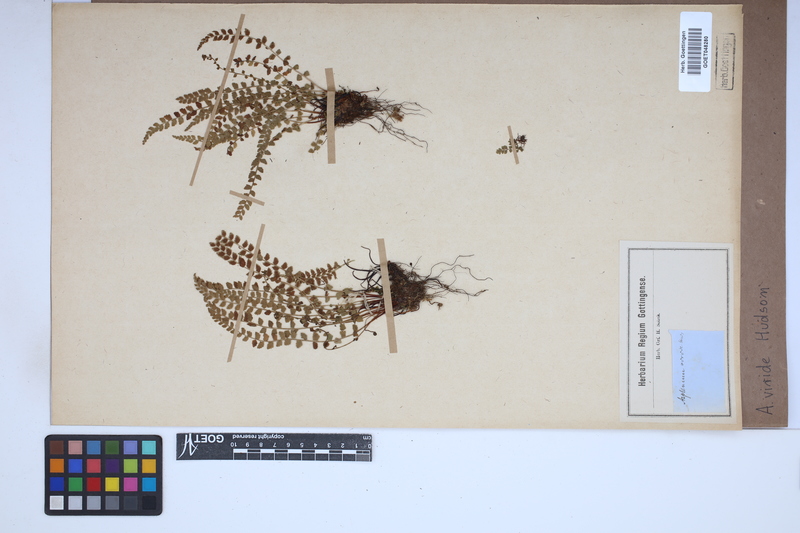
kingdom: Plantae
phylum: Tracheophyta
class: Polypodiopsida
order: Polypodiales
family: Aspleniaceae
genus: Asplenium
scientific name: Asplenium viride
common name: Green spleenwort
